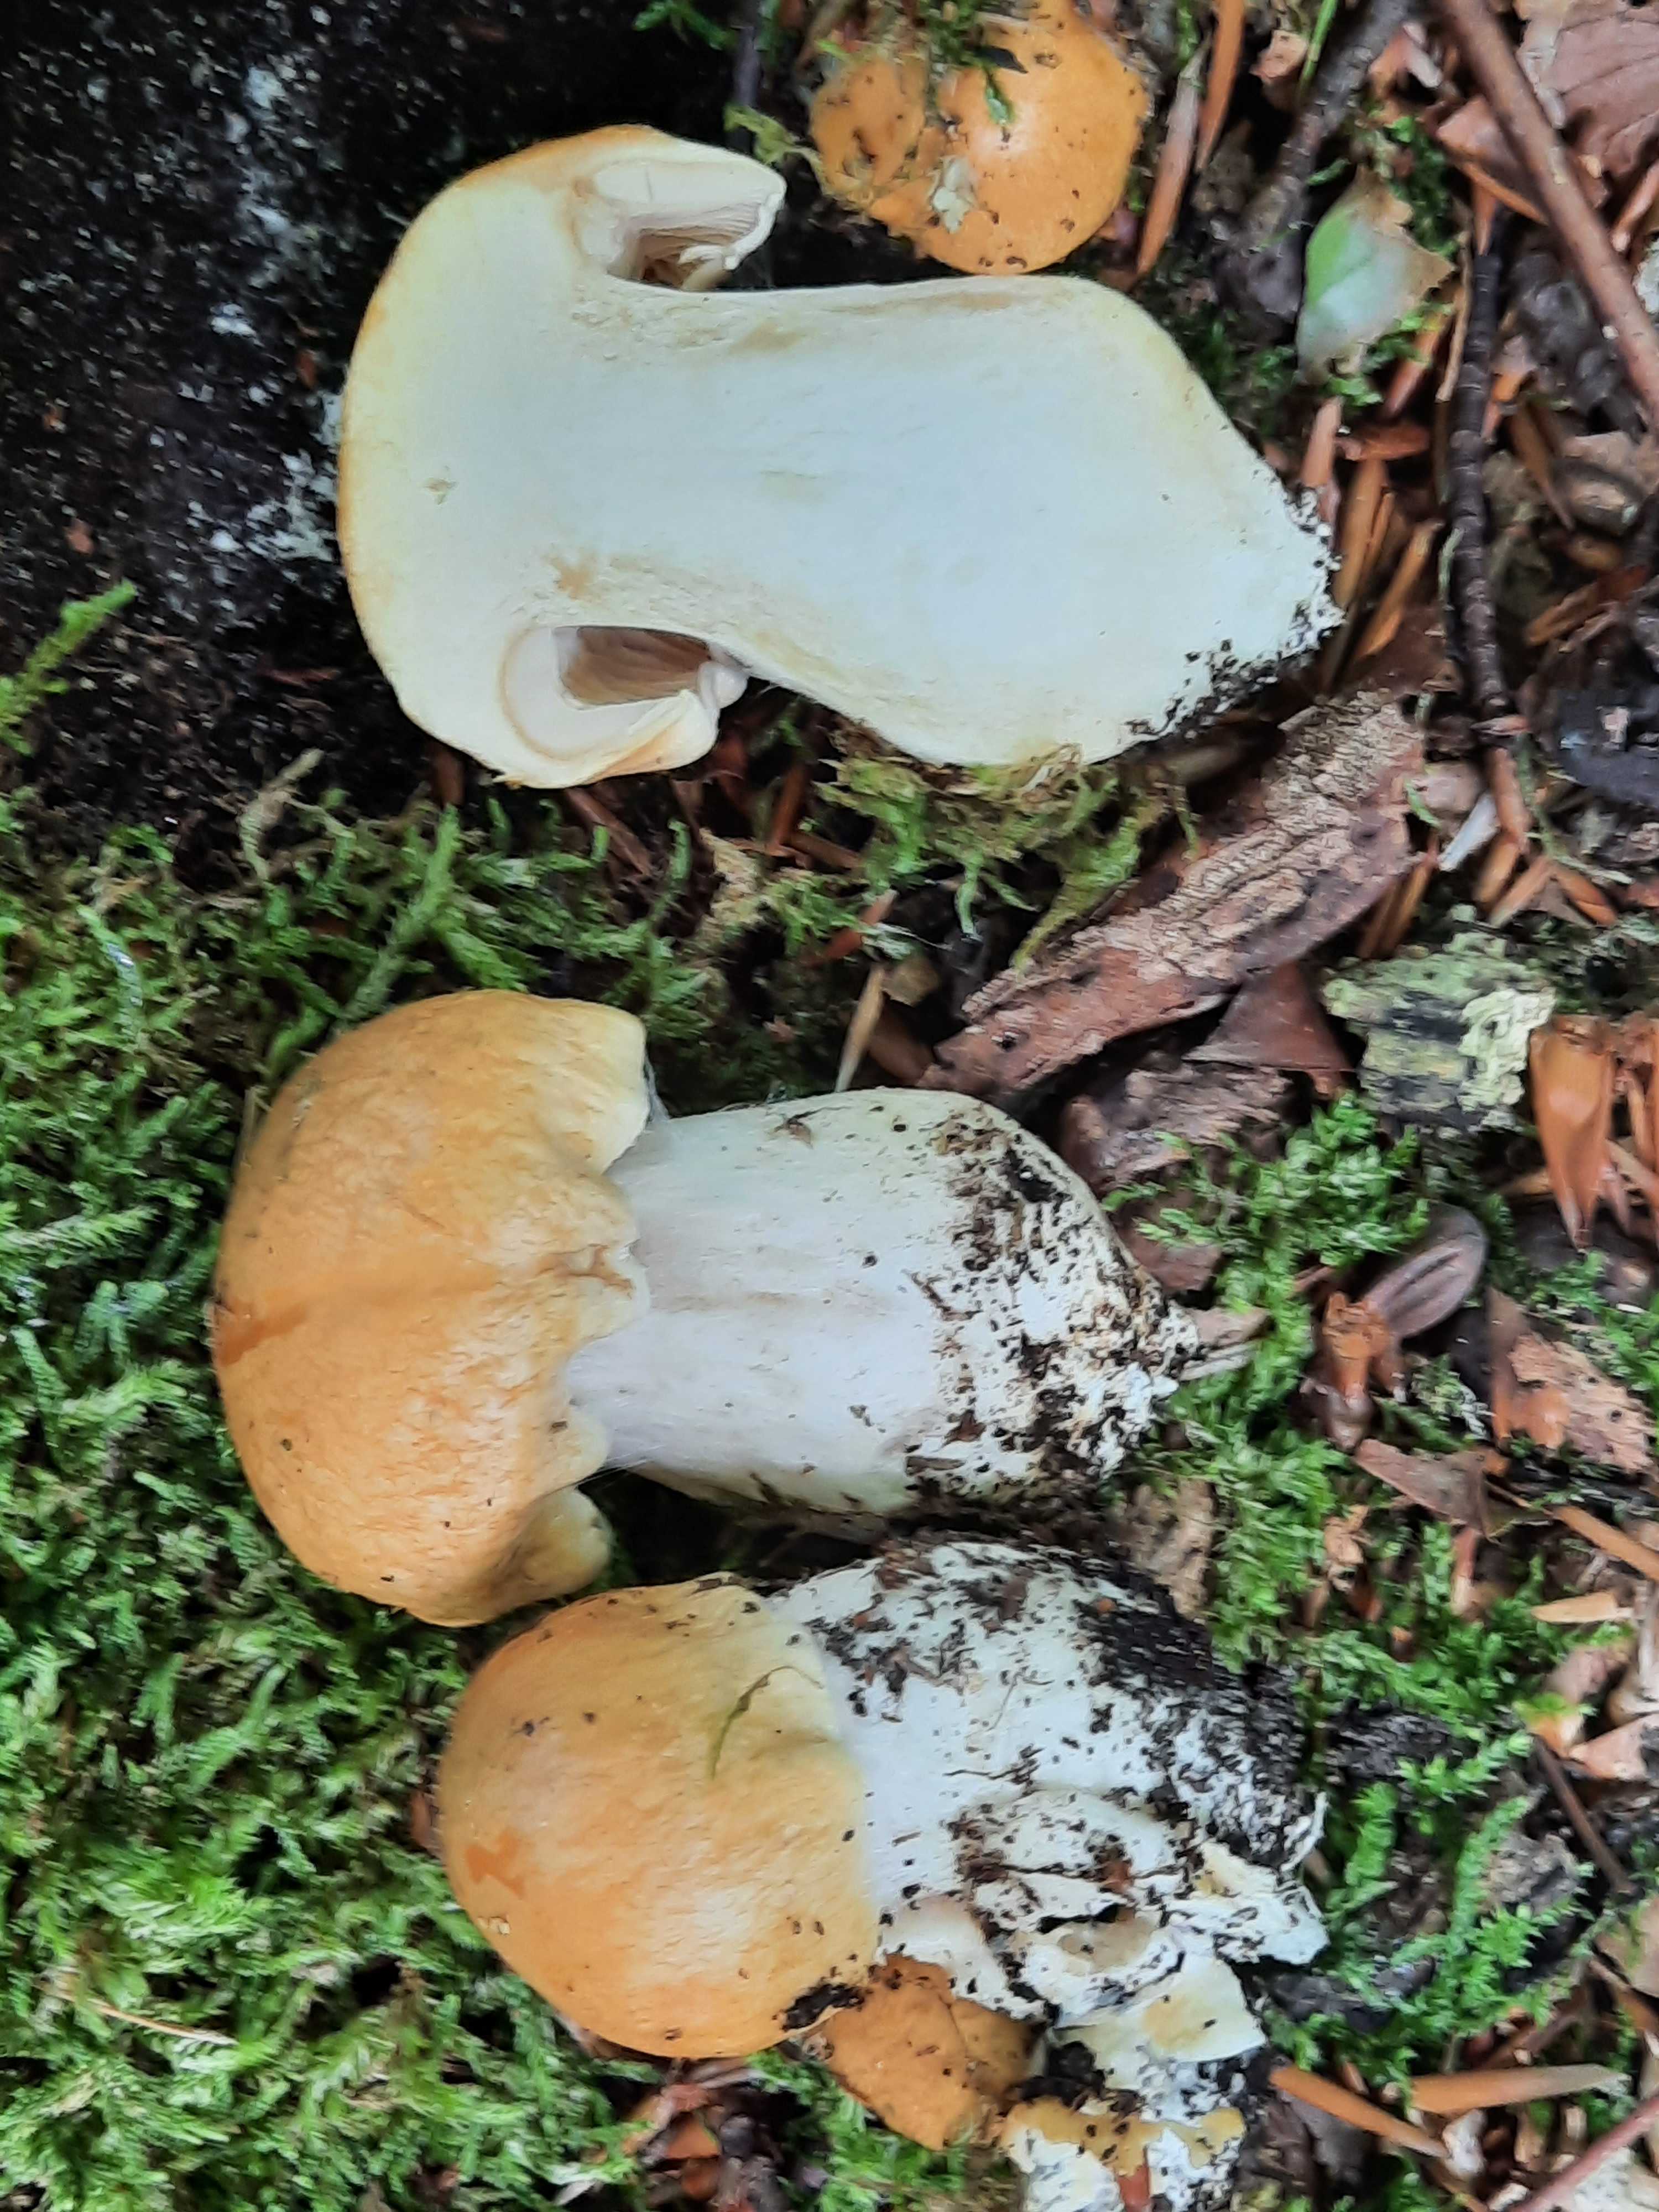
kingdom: Fungi
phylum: Basidiomycota
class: Agaricomycetes
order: Agaricales
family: Cortinariaceae
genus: Thaxterogaster
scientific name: Thaxterogaster
